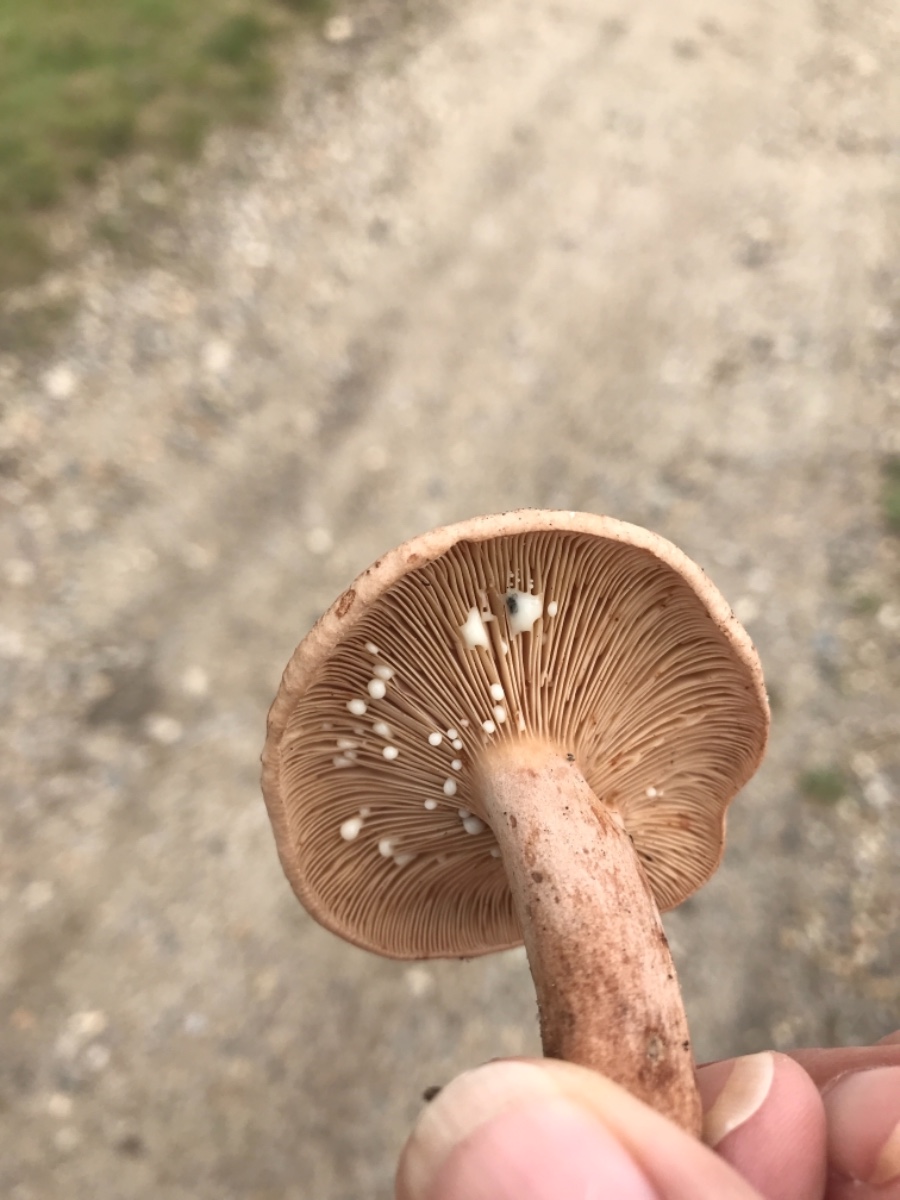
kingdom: Fungi
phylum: Basidiomycota
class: Agaricomycetes
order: Russulales
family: Russulaceae
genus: Lactarius
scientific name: Lactarius quietus
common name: ege-mælkehat
